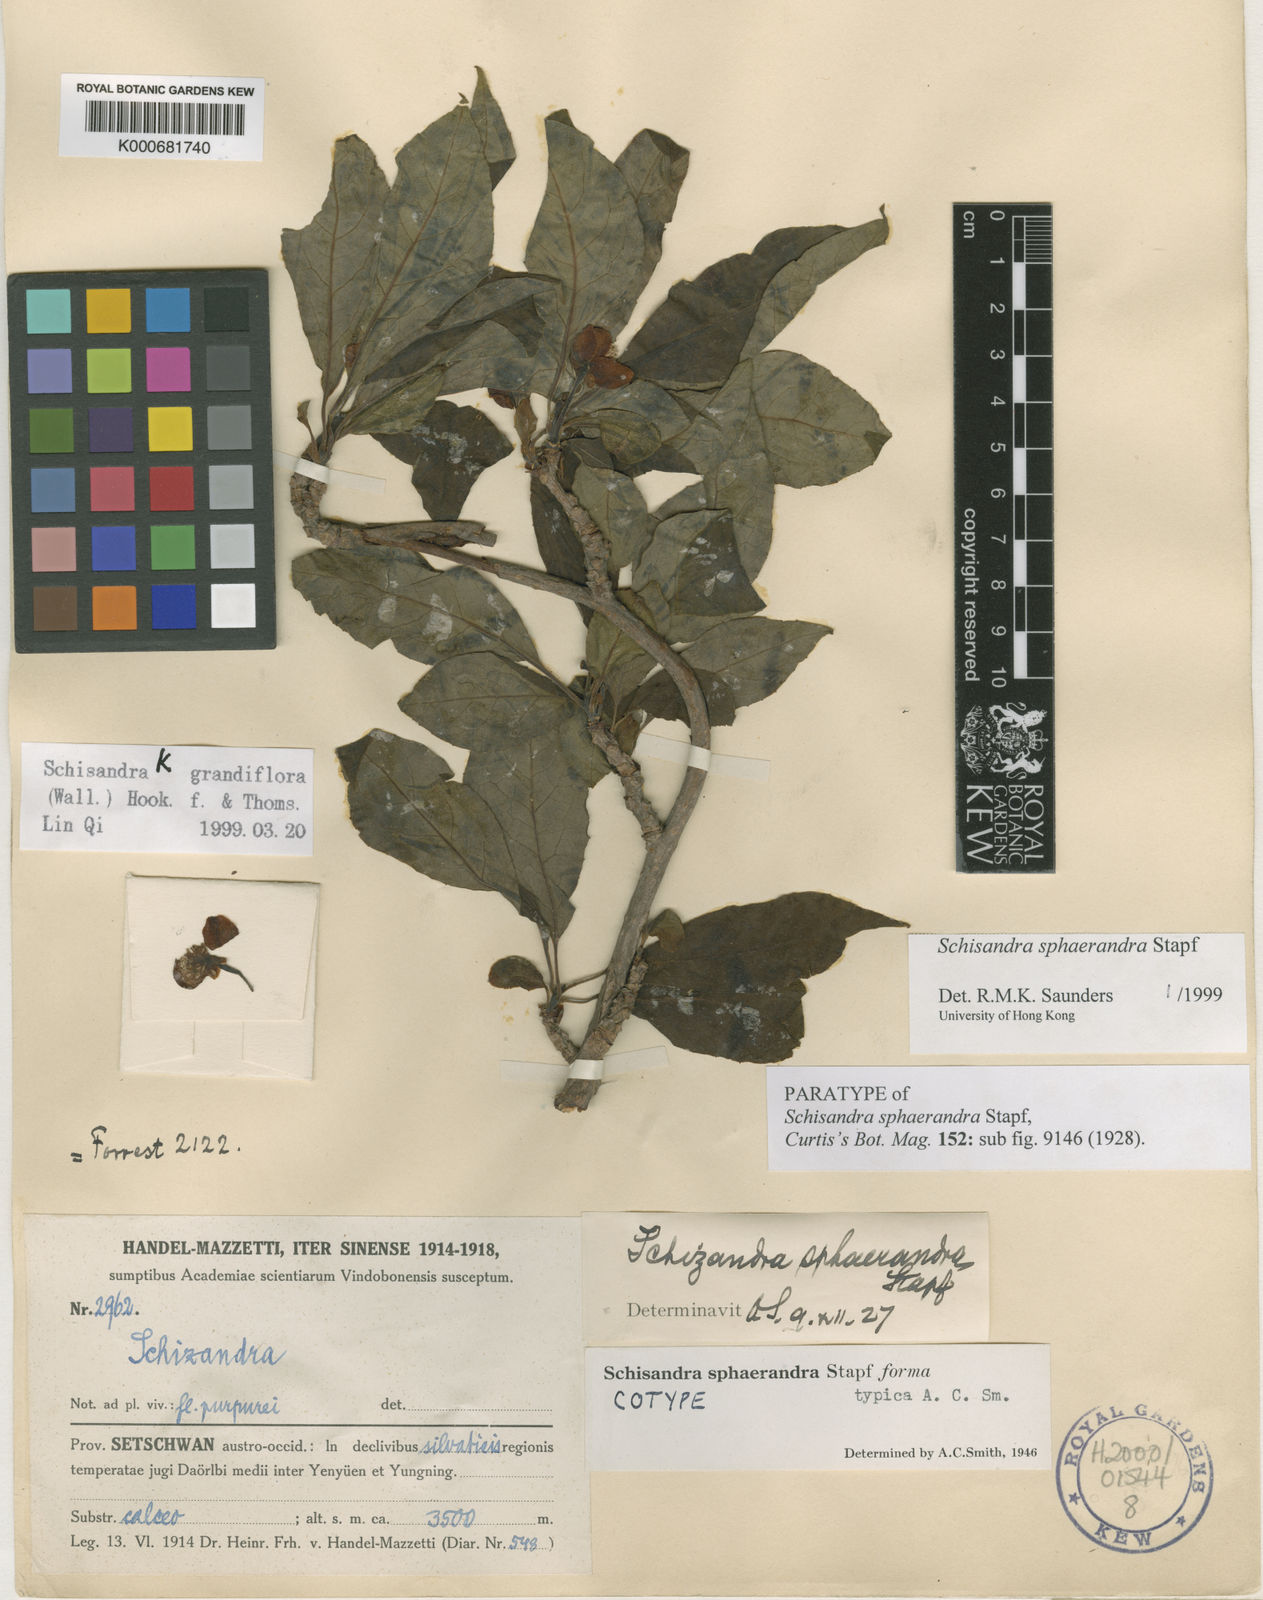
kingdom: Plantae
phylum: Tracheophyta
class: Magnoliopsida
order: Austrobaileyales
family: Schisandraceae
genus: Schisandra
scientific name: Schisandra sphaerandra
